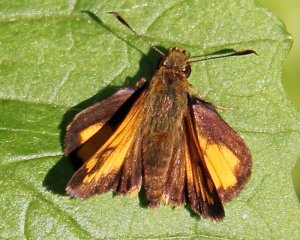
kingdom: Animalia
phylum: Arthropoda
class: Insecta
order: Lepidoptera
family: Hesperiidae
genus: Lon
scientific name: Lon hobomok
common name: Hobomok Skipper
